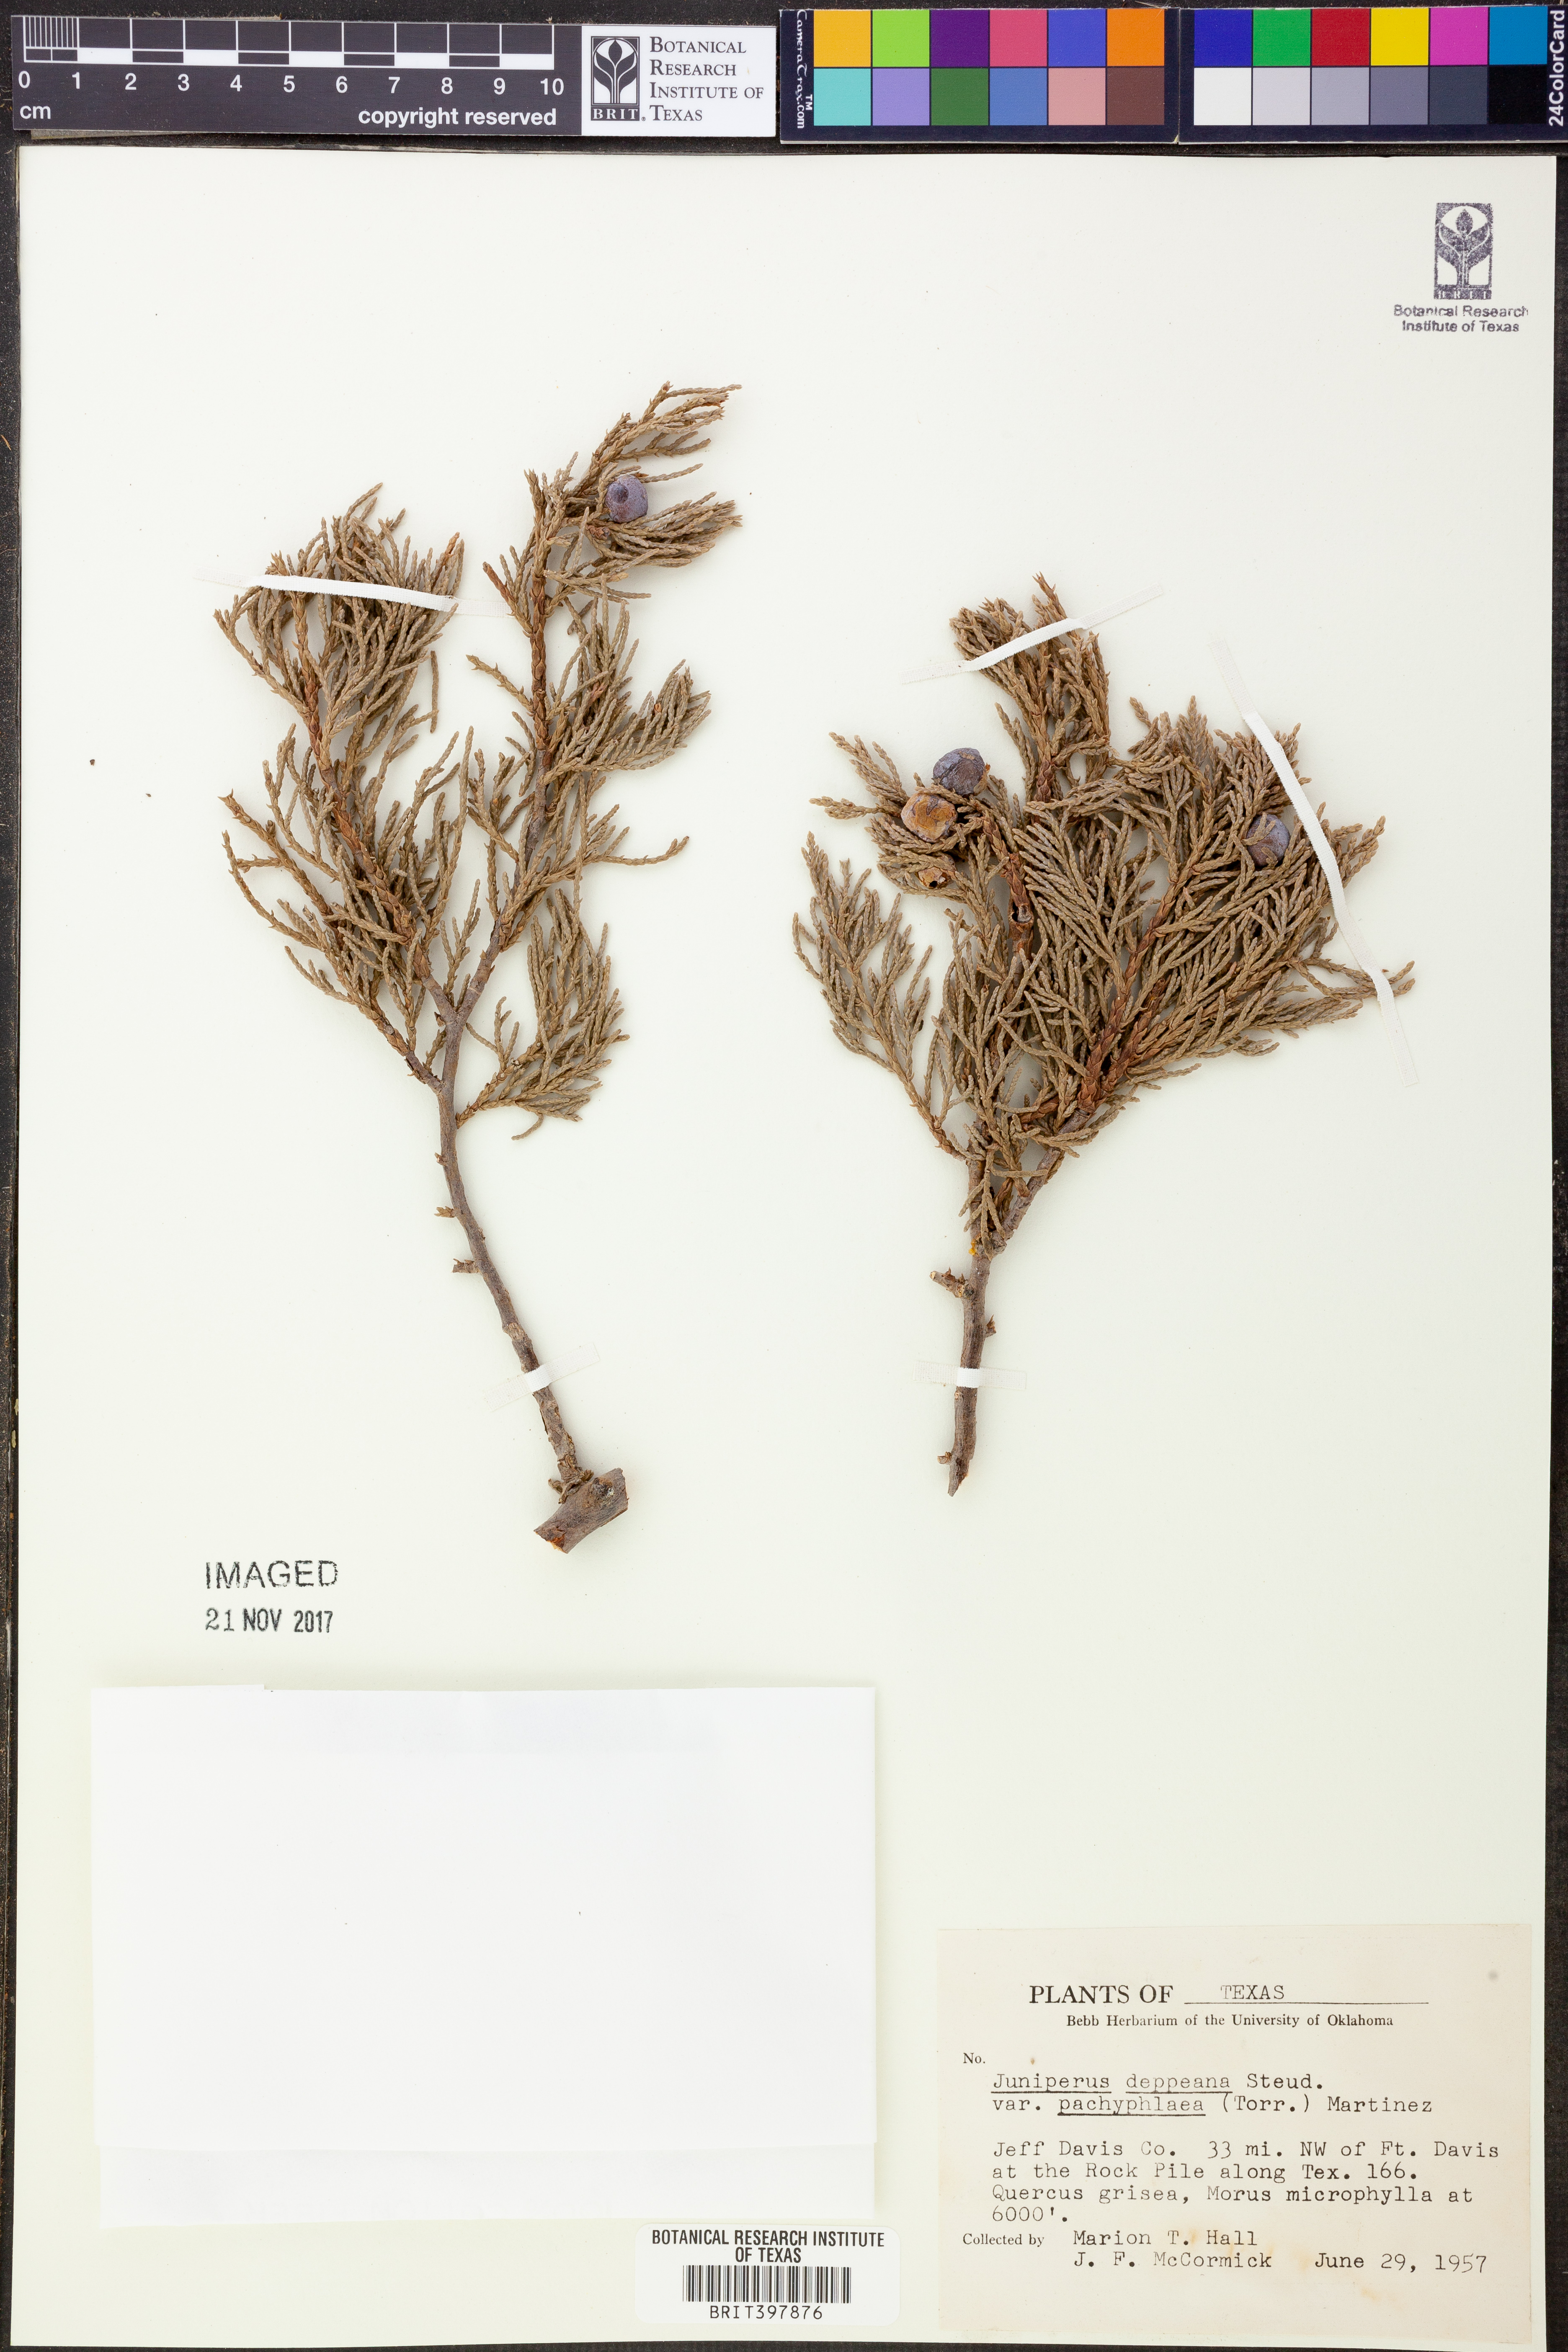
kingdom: Plantae
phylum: Tracheophyta
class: Pinopsida
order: Pinales
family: Cupressaceae
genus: Juniperus
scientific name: Juniperus deppeana
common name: Alligator juniper
